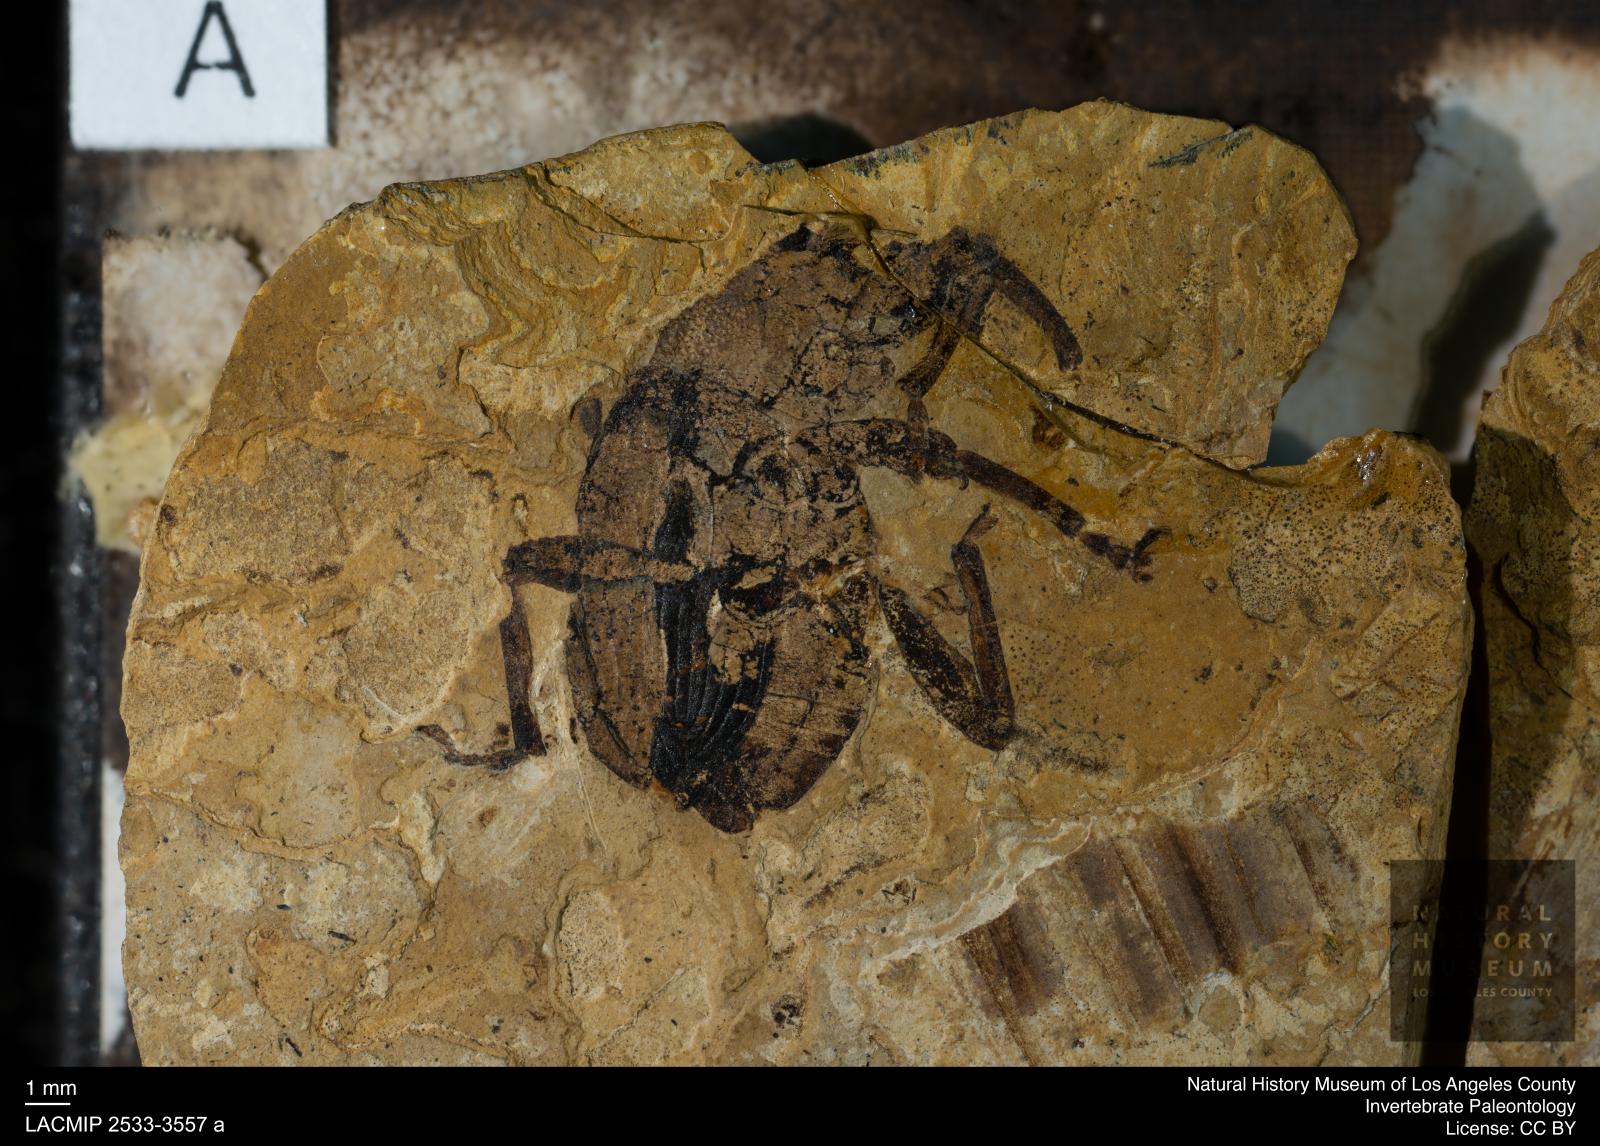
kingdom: Animalia
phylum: Arthropoda
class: Insecta
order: Coleoptera
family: Curculionidae
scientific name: Curculionidae
